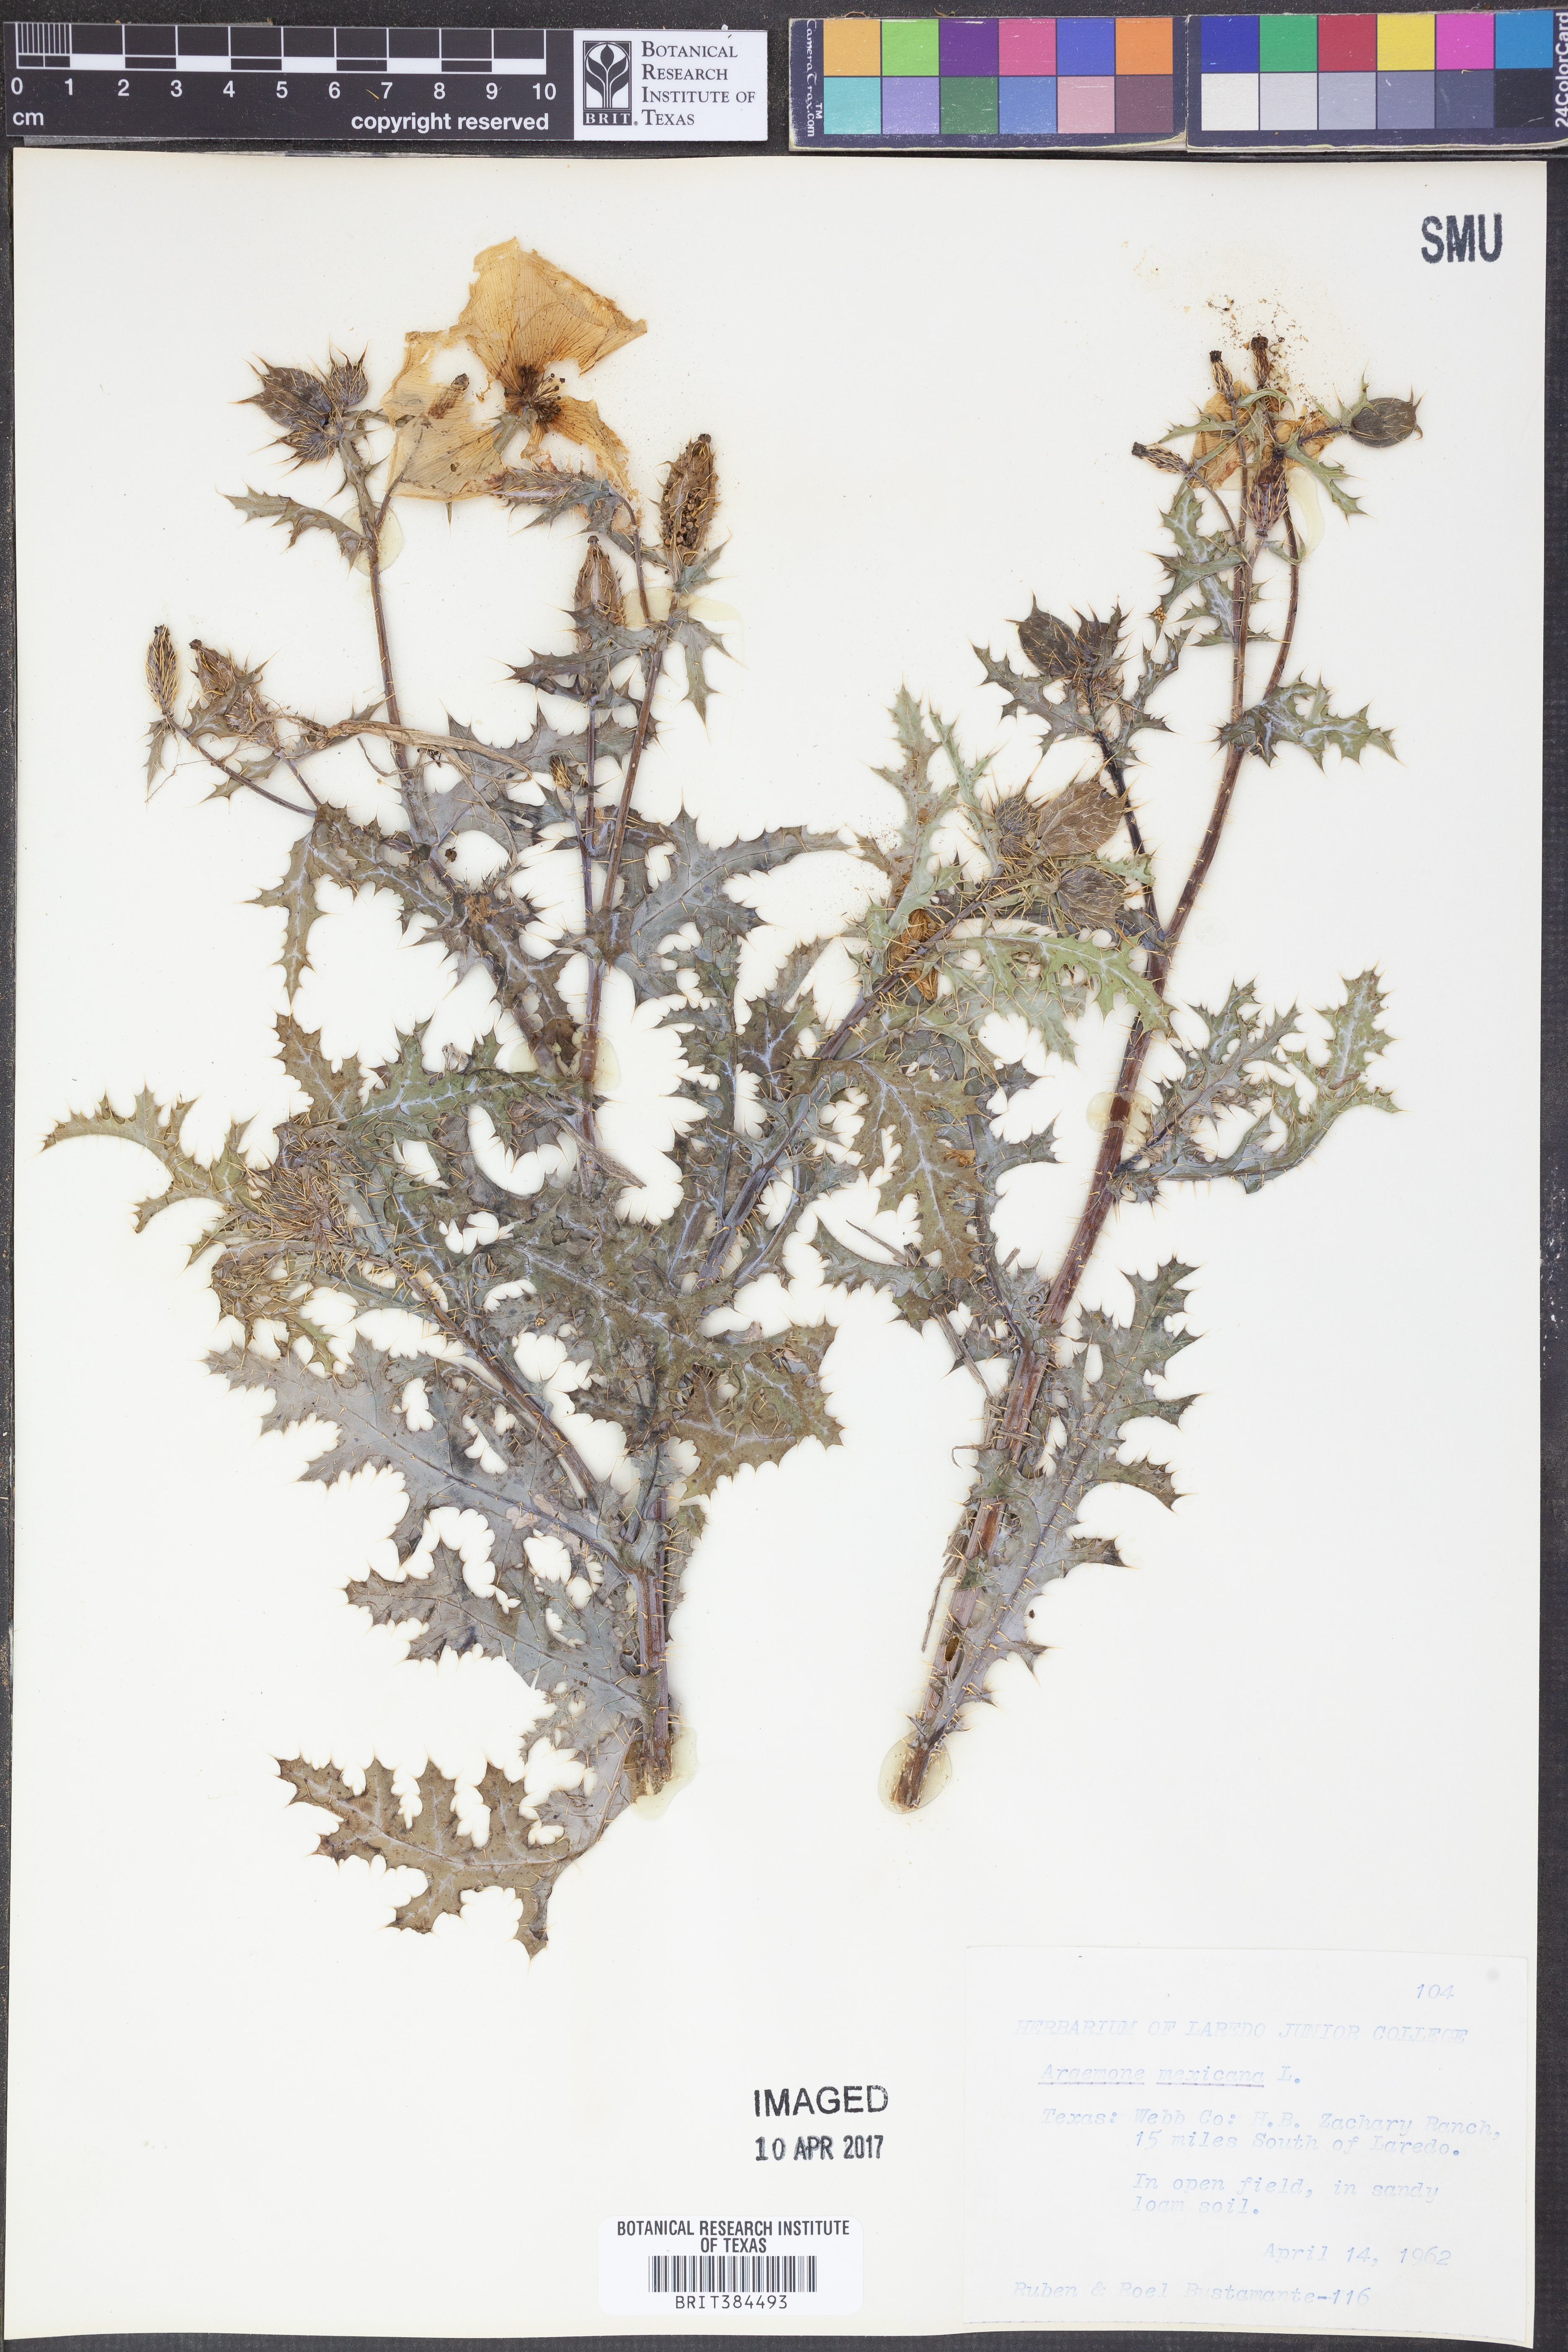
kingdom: Plantae
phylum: Tracheophyta
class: Magnoliopsida
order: Ranunculales
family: Papaveraceae
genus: Argemone
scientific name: Argemone mexicana
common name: Mexican poppy
